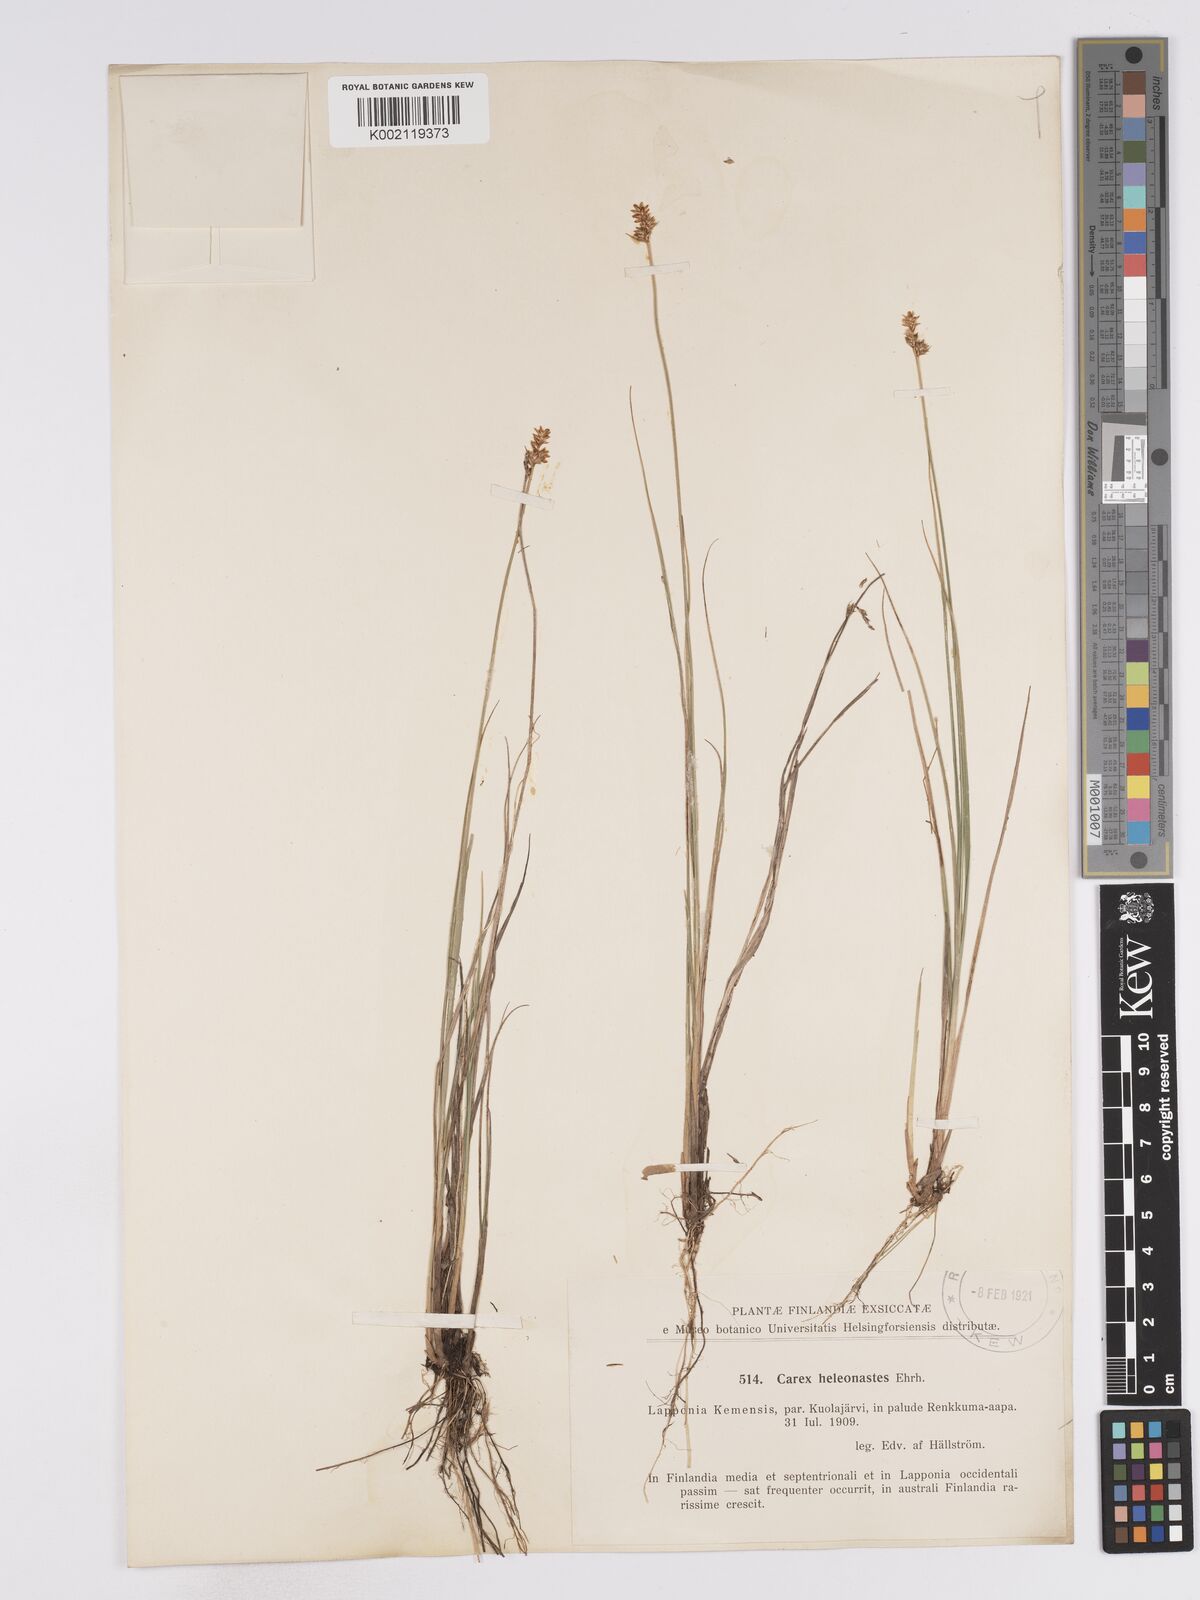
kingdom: Plantae
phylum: Tracheophyta
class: Liliopsida
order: Poales
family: Cyperaceae
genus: Carex
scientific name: Carex heleonastes
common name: Hudson bay sedge
